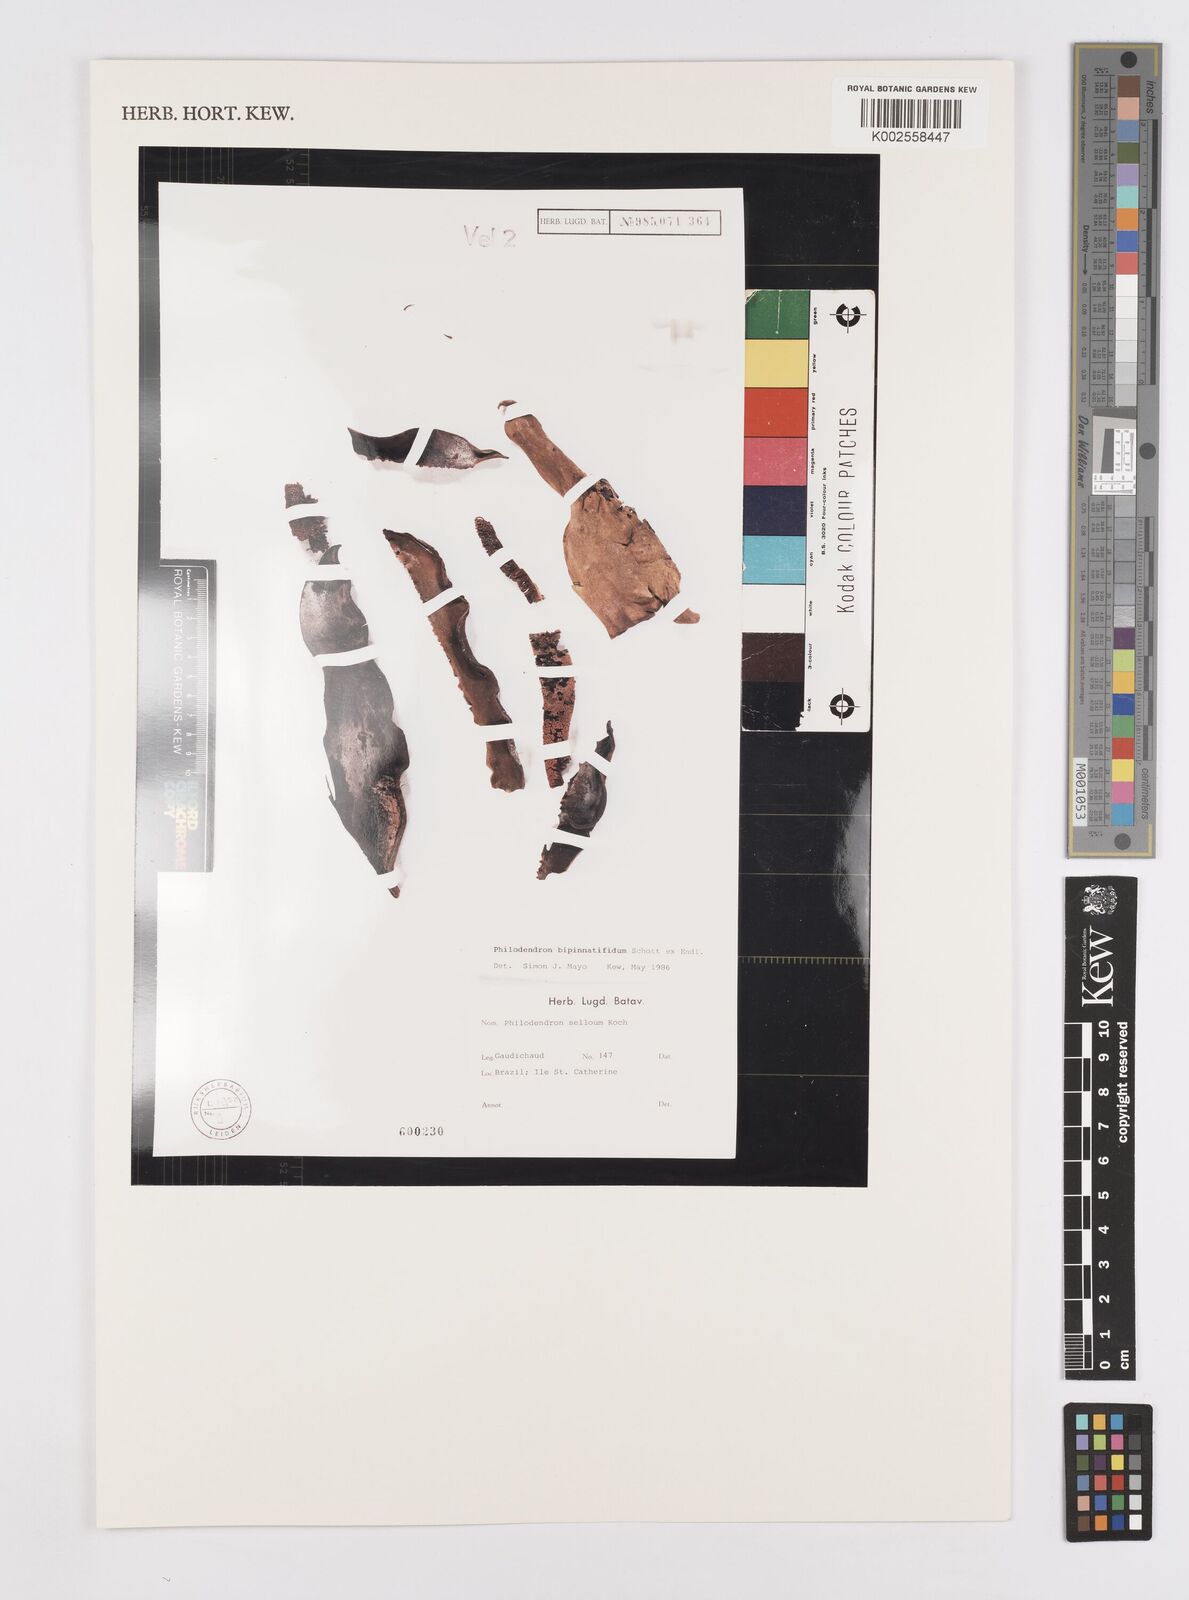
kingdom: Plantae
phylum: Tracheophyta
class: Liliopsida
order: Alismatales
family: Araceae
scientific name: Araceae
